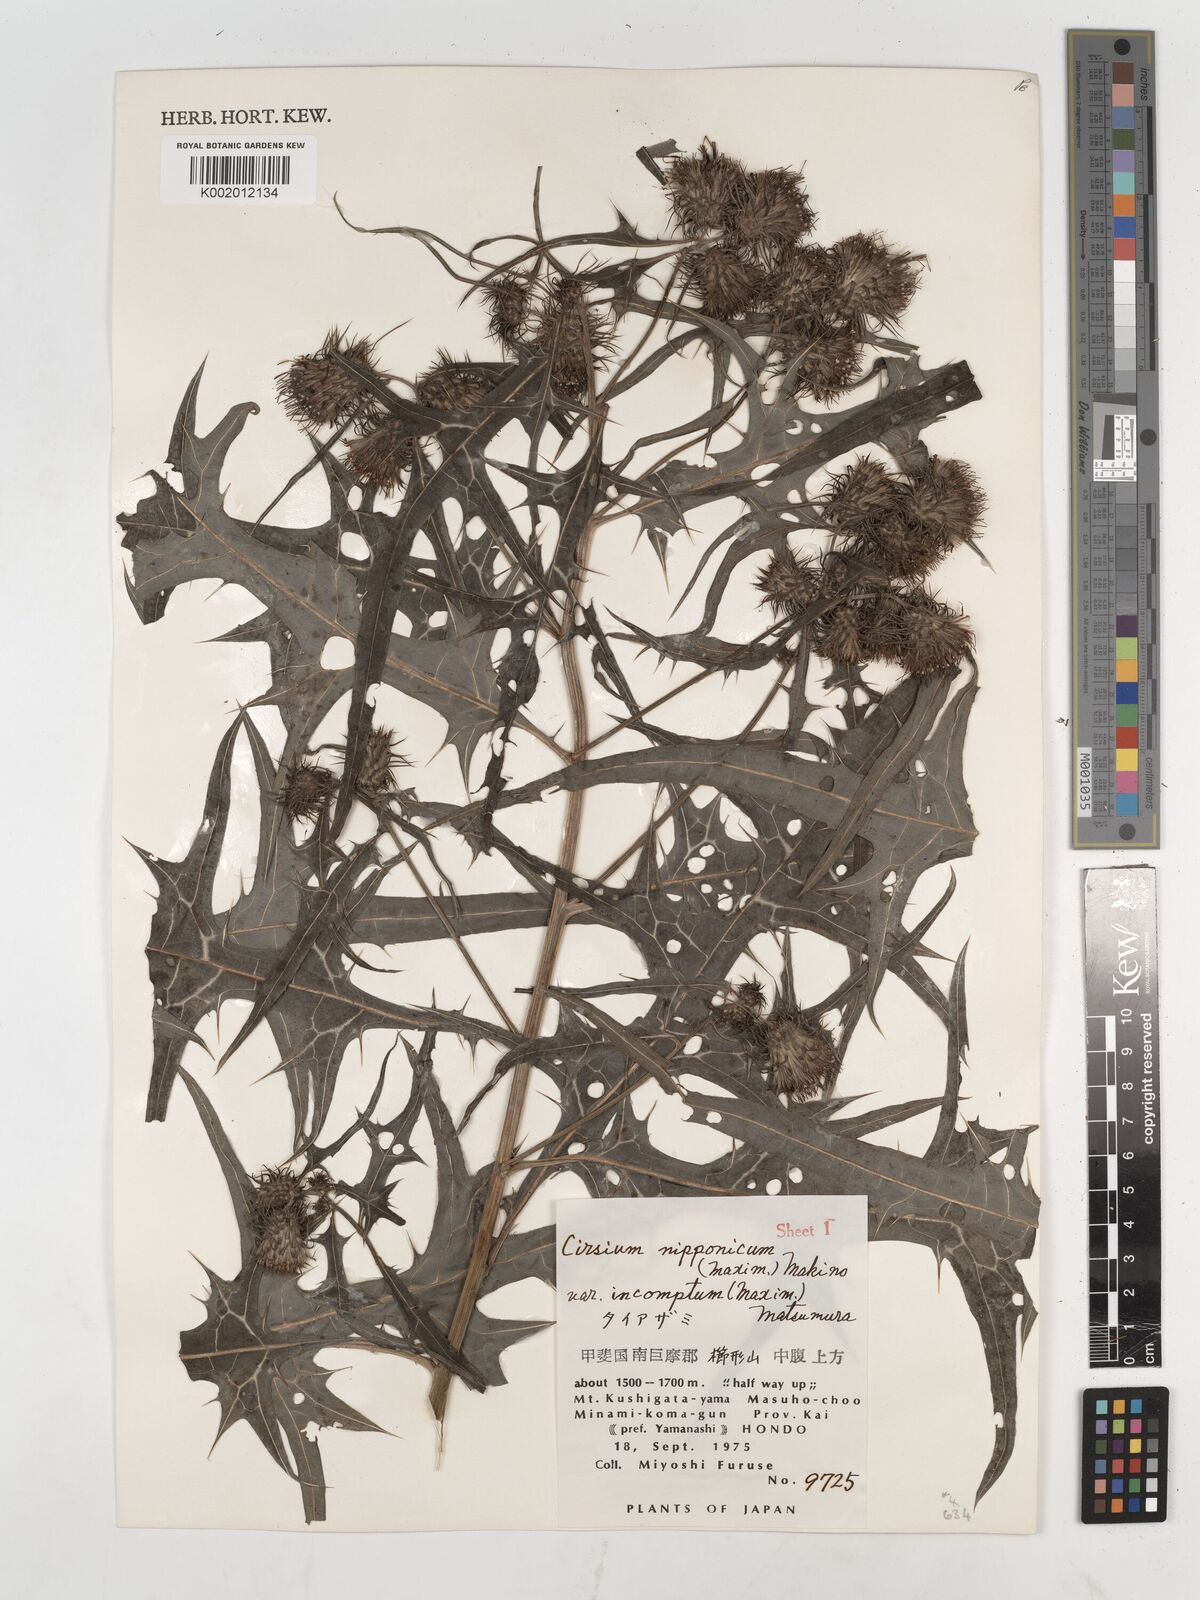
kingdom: Plantae
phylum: Tracheophyta
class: Magnoliopsida
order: Asterales
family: Asteraceae
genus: Cirsium
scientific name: Cirsium nipponicum
